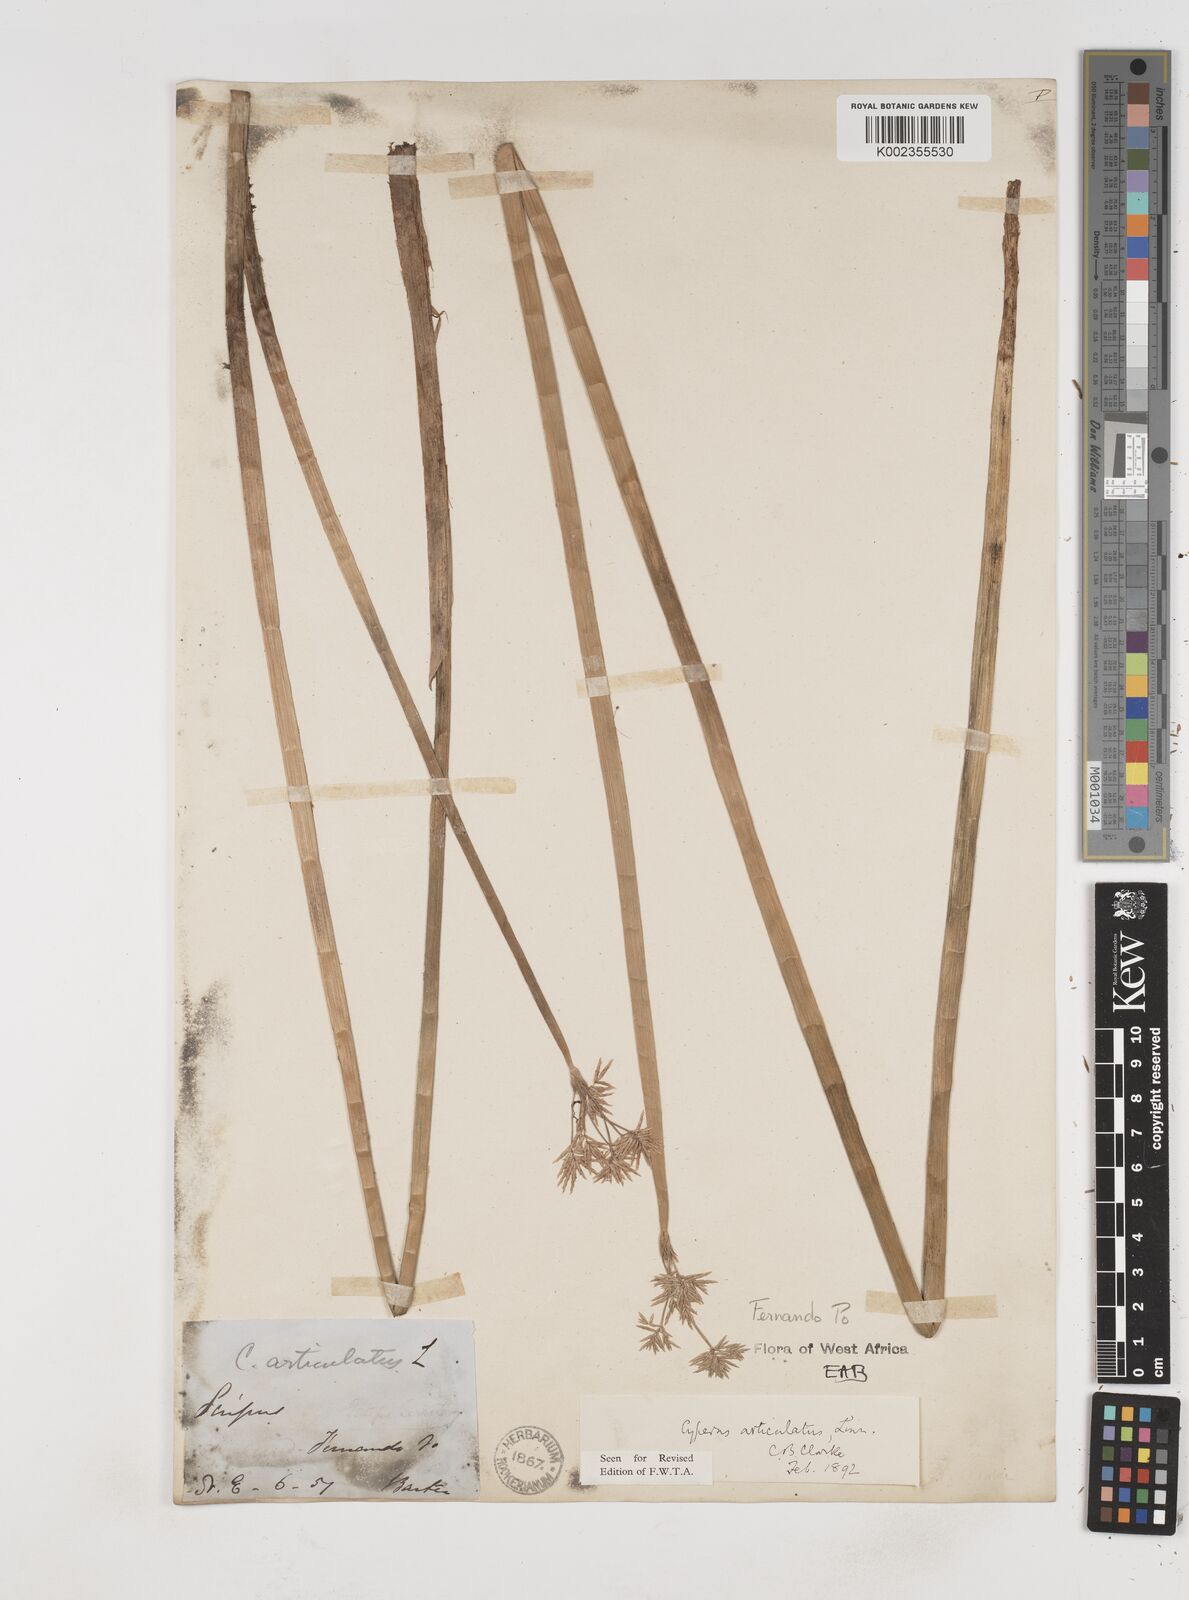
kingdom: Plantae
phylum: Tracheophyta
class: Liliopsida
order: Poales
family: Cyperaceae
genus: Cyperus
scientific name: Cyperus articulatus
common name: Jointed flatsedge
